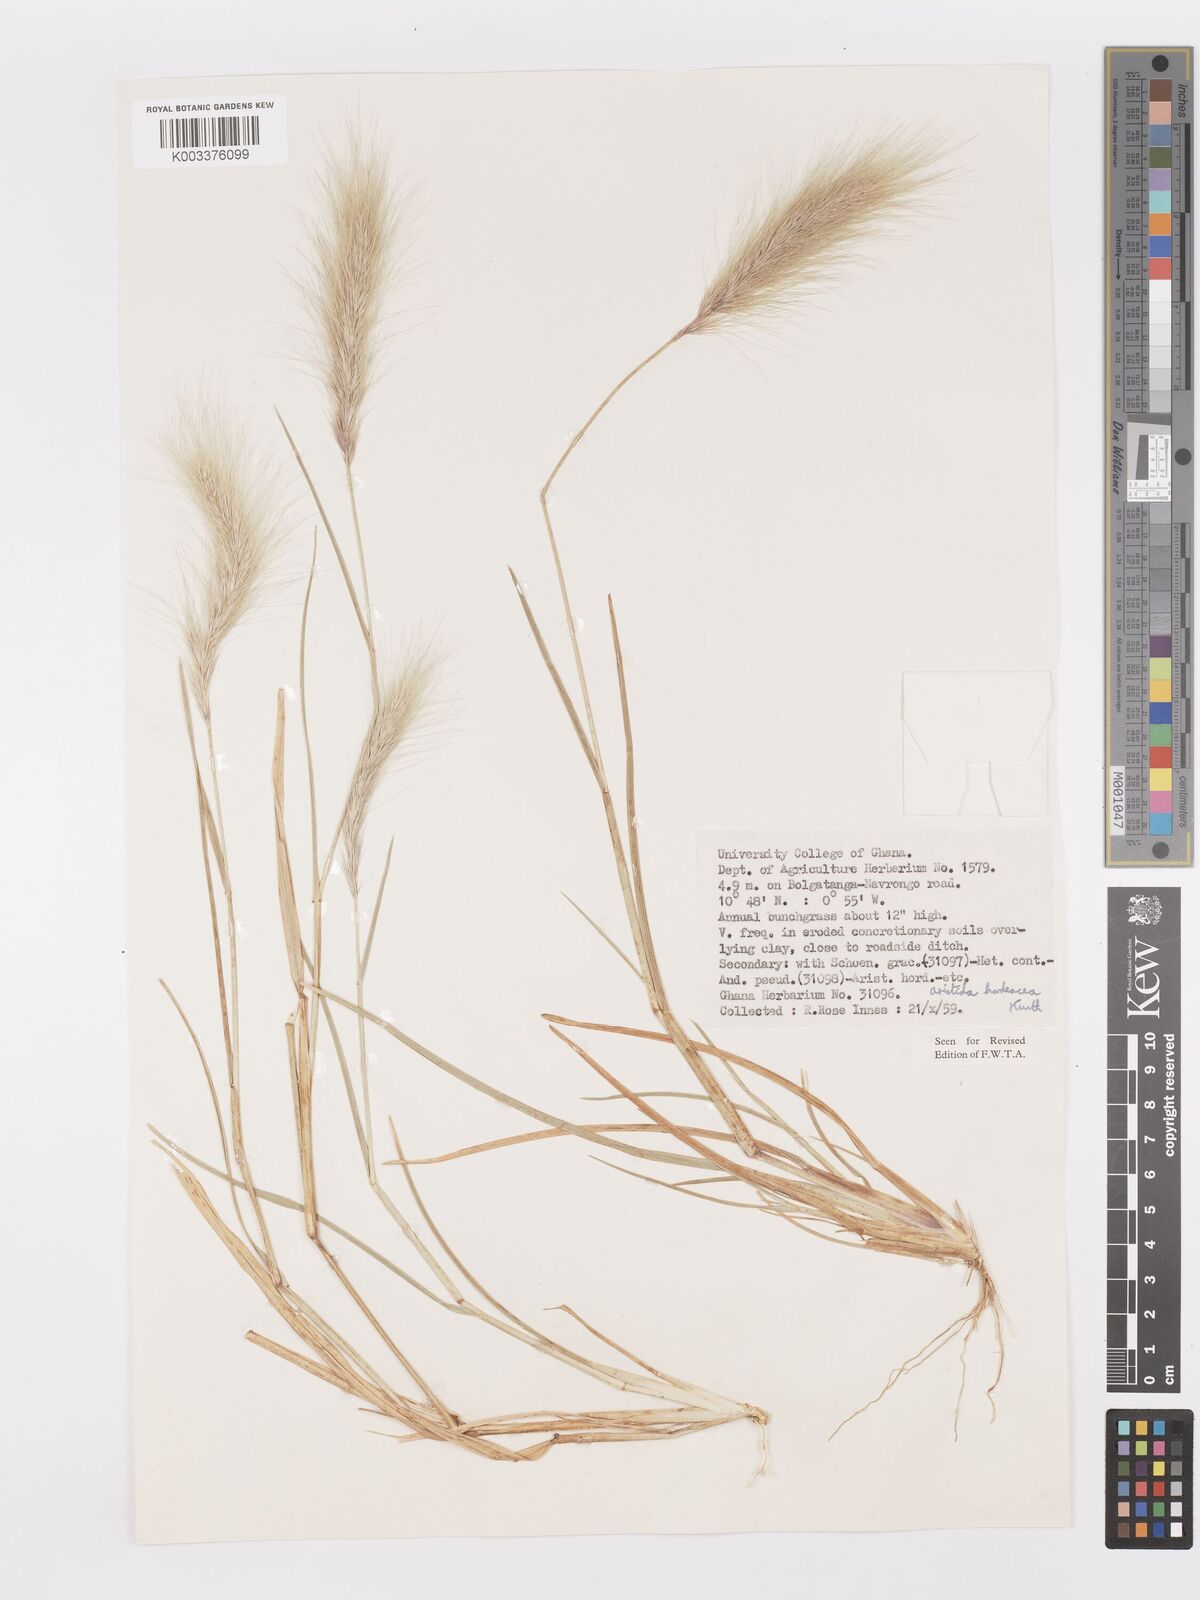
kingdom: Plantae
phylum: Tracheophyta
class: Liliopsida
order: Poales
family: Poaceae
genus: Aristida
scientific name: Aristida hordeacea
